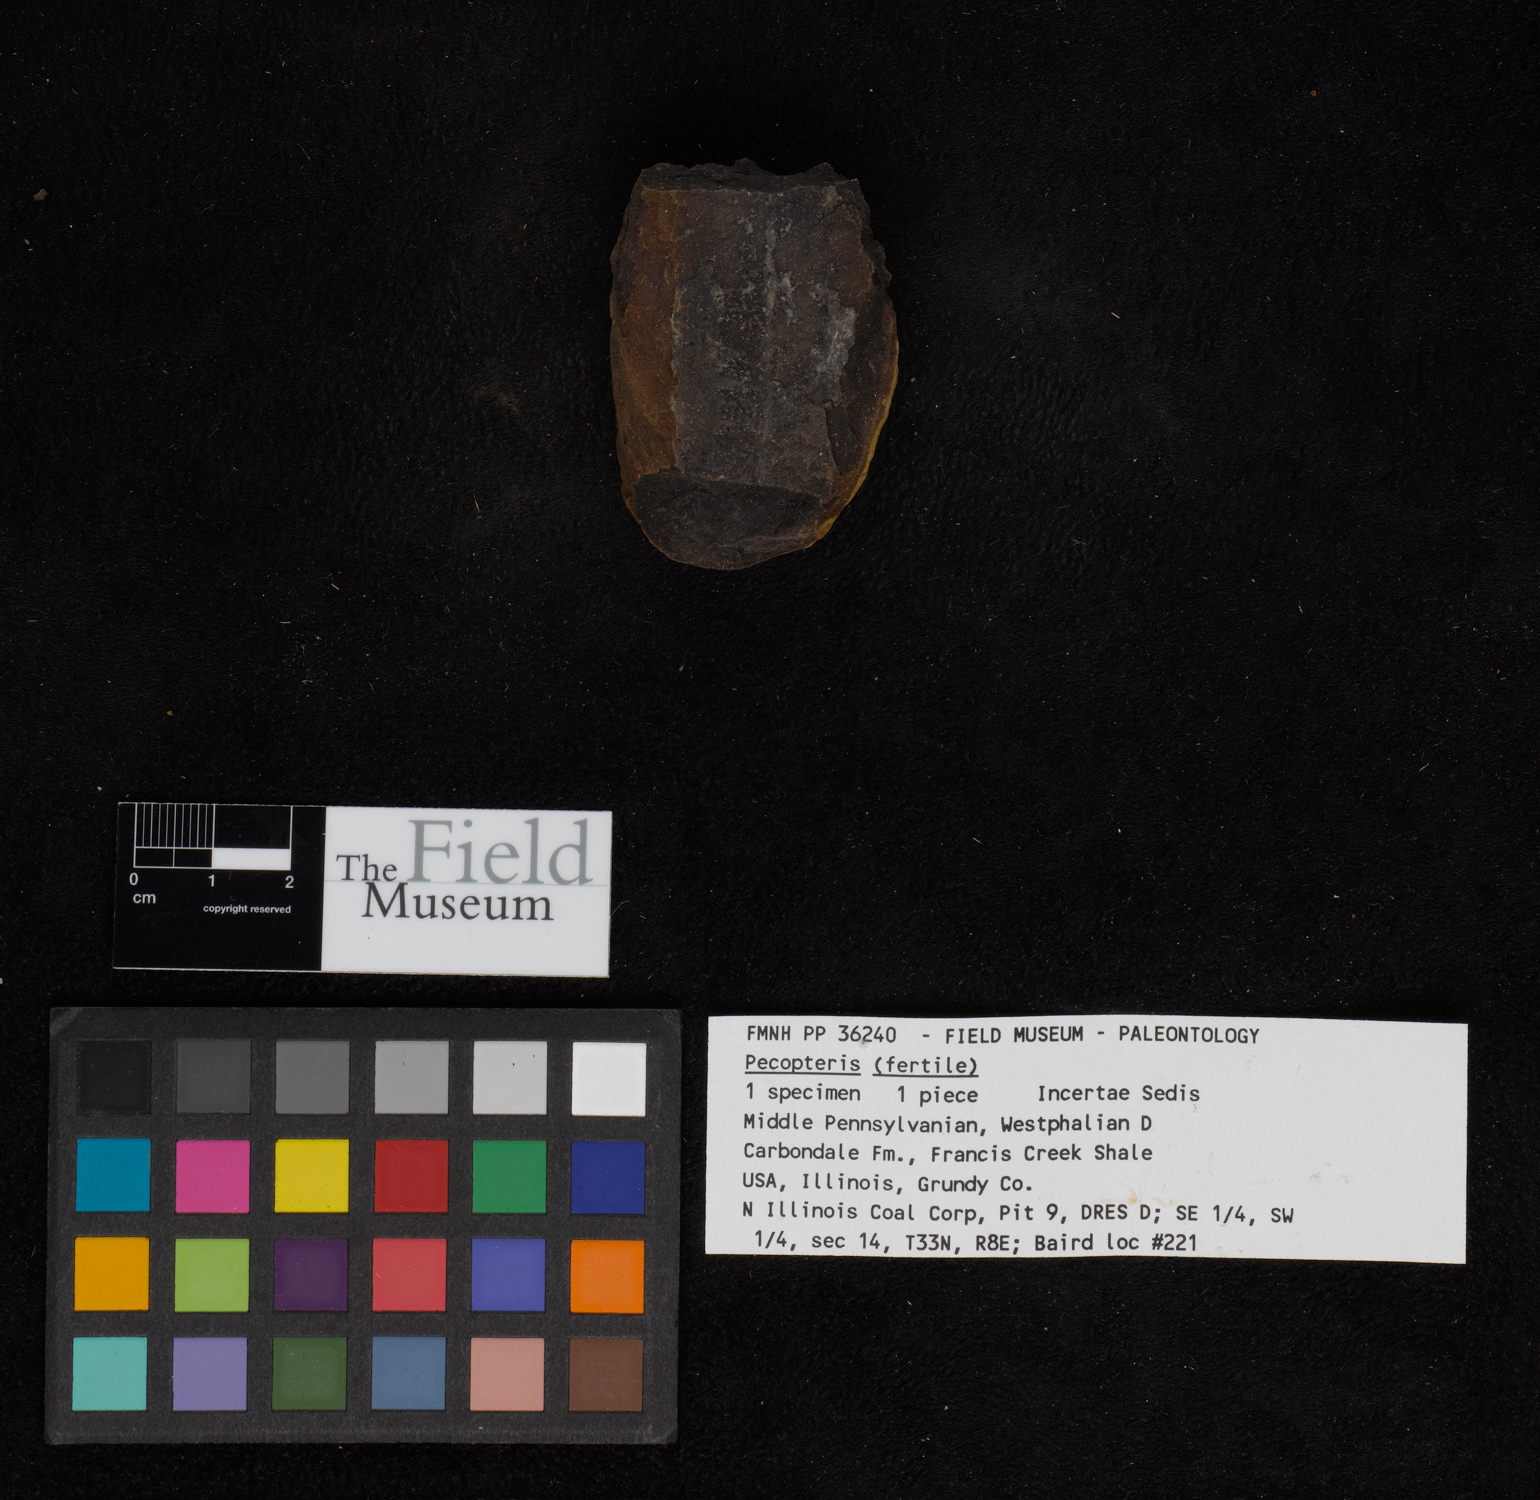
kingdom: Plantae
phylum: Tracheophyta
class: Polypodiopsida
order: Marattiales
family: Asterothecaceae
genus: Pecopteris
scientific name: Pecopteris
